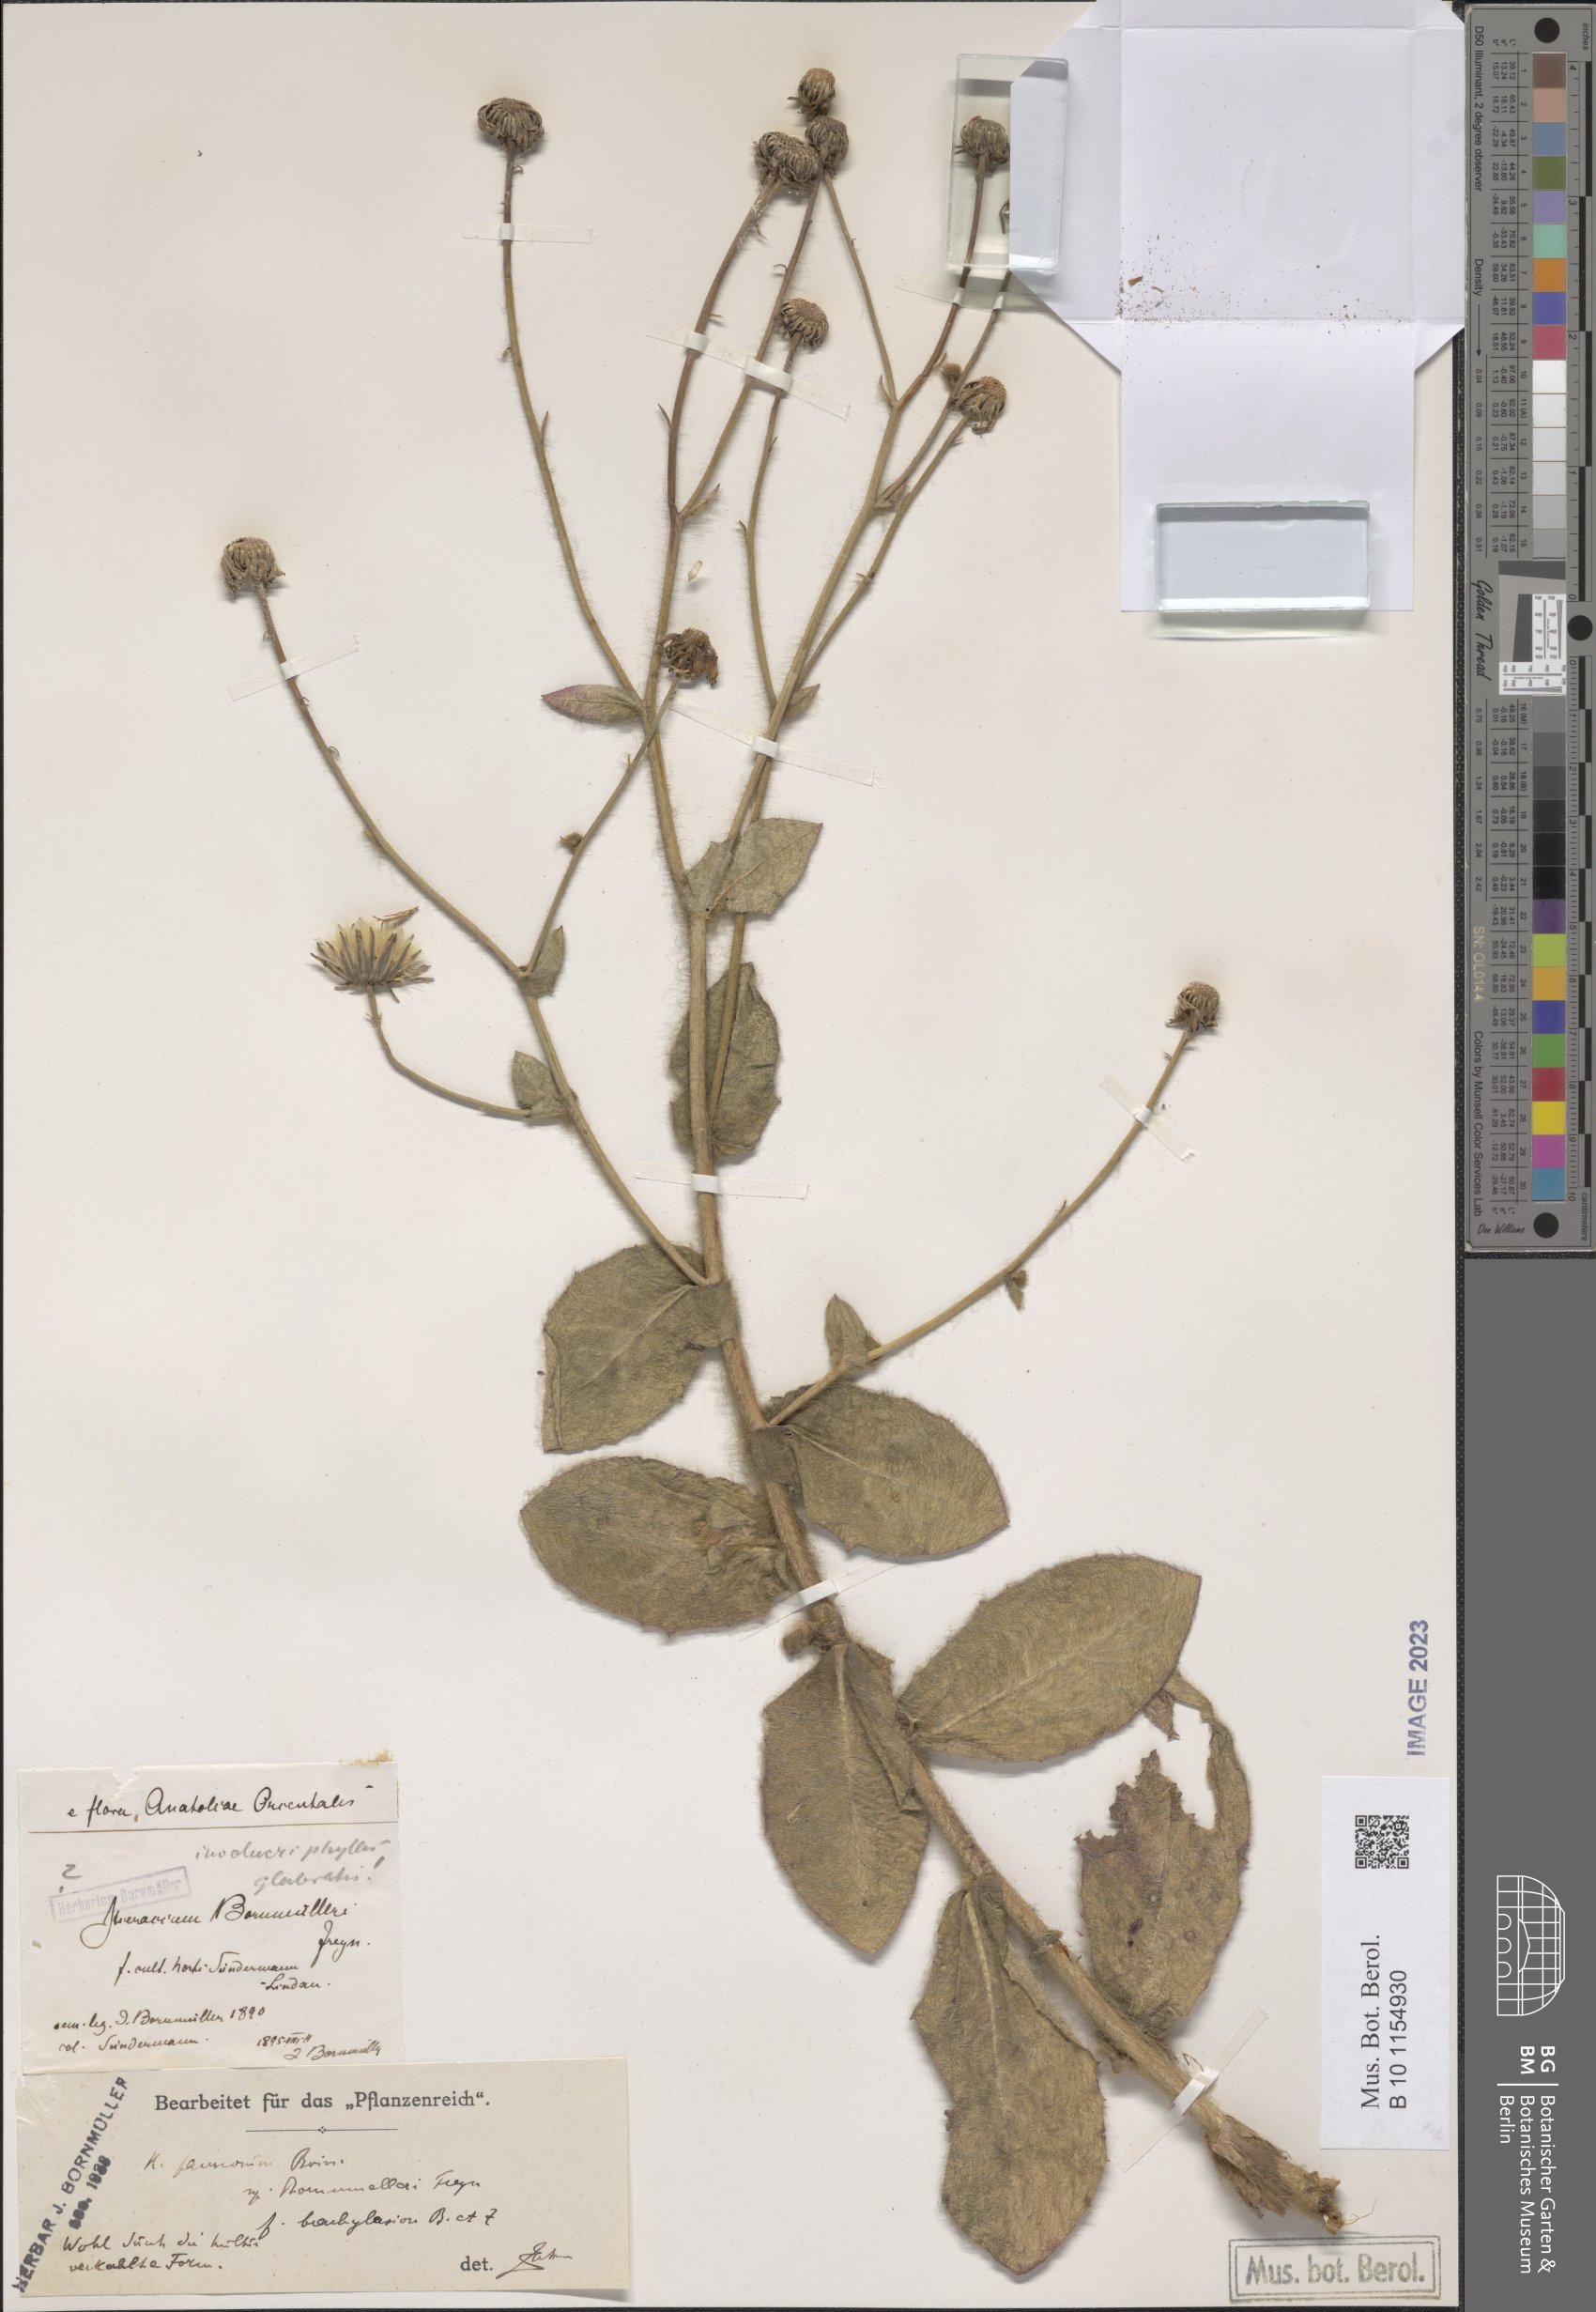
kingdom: Plantae
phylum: Tracheophyta
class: Magnoliopsida
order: Asterales
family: Asteraceae
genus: Hieracium
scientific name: Hieracium pannosum
